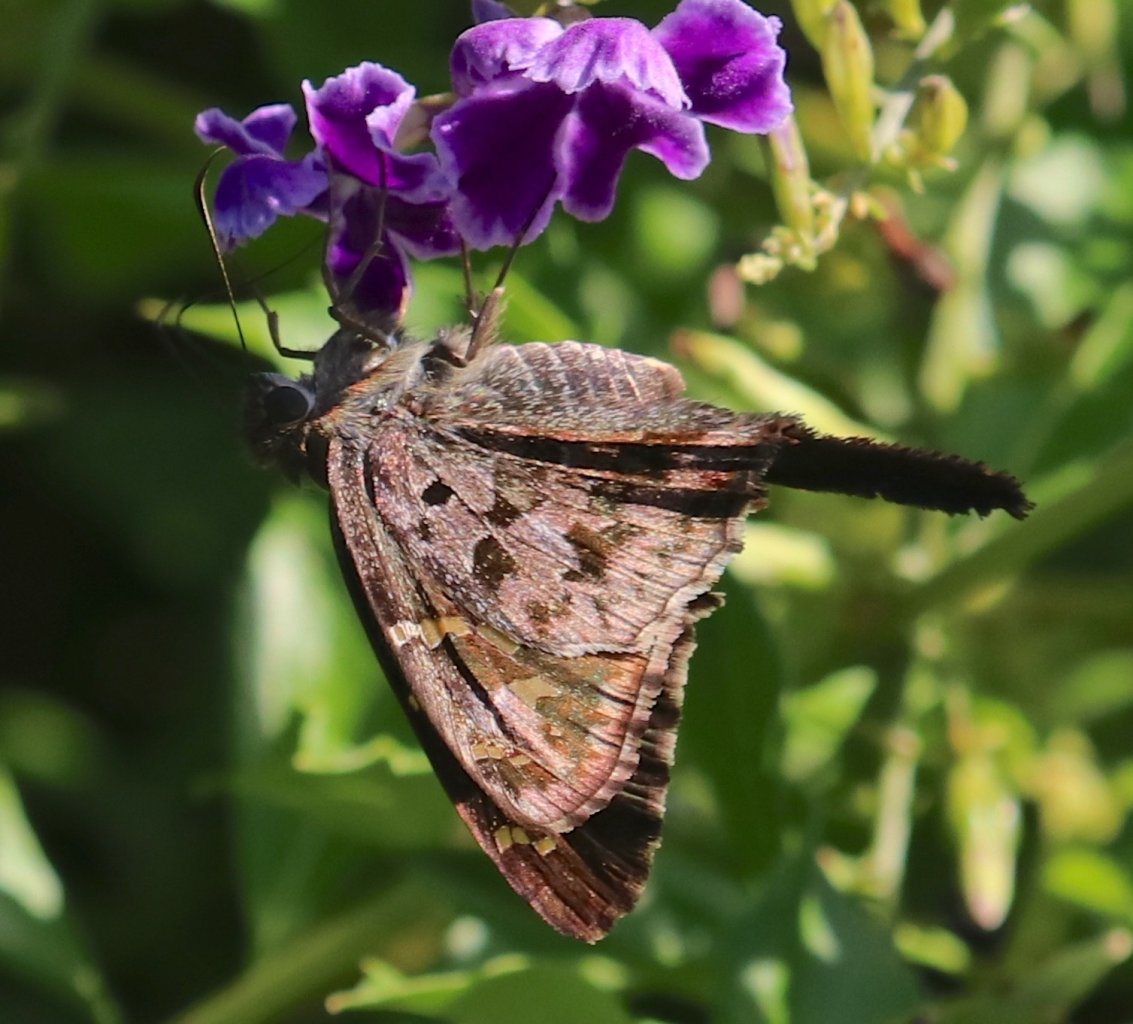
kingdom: Animalia
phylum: Arthropoda
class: Insecta
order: Lepidoptera
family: Hesperiidae
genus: Urbanus
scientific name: Urbanus dorantes
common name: Dorantes Longtail
